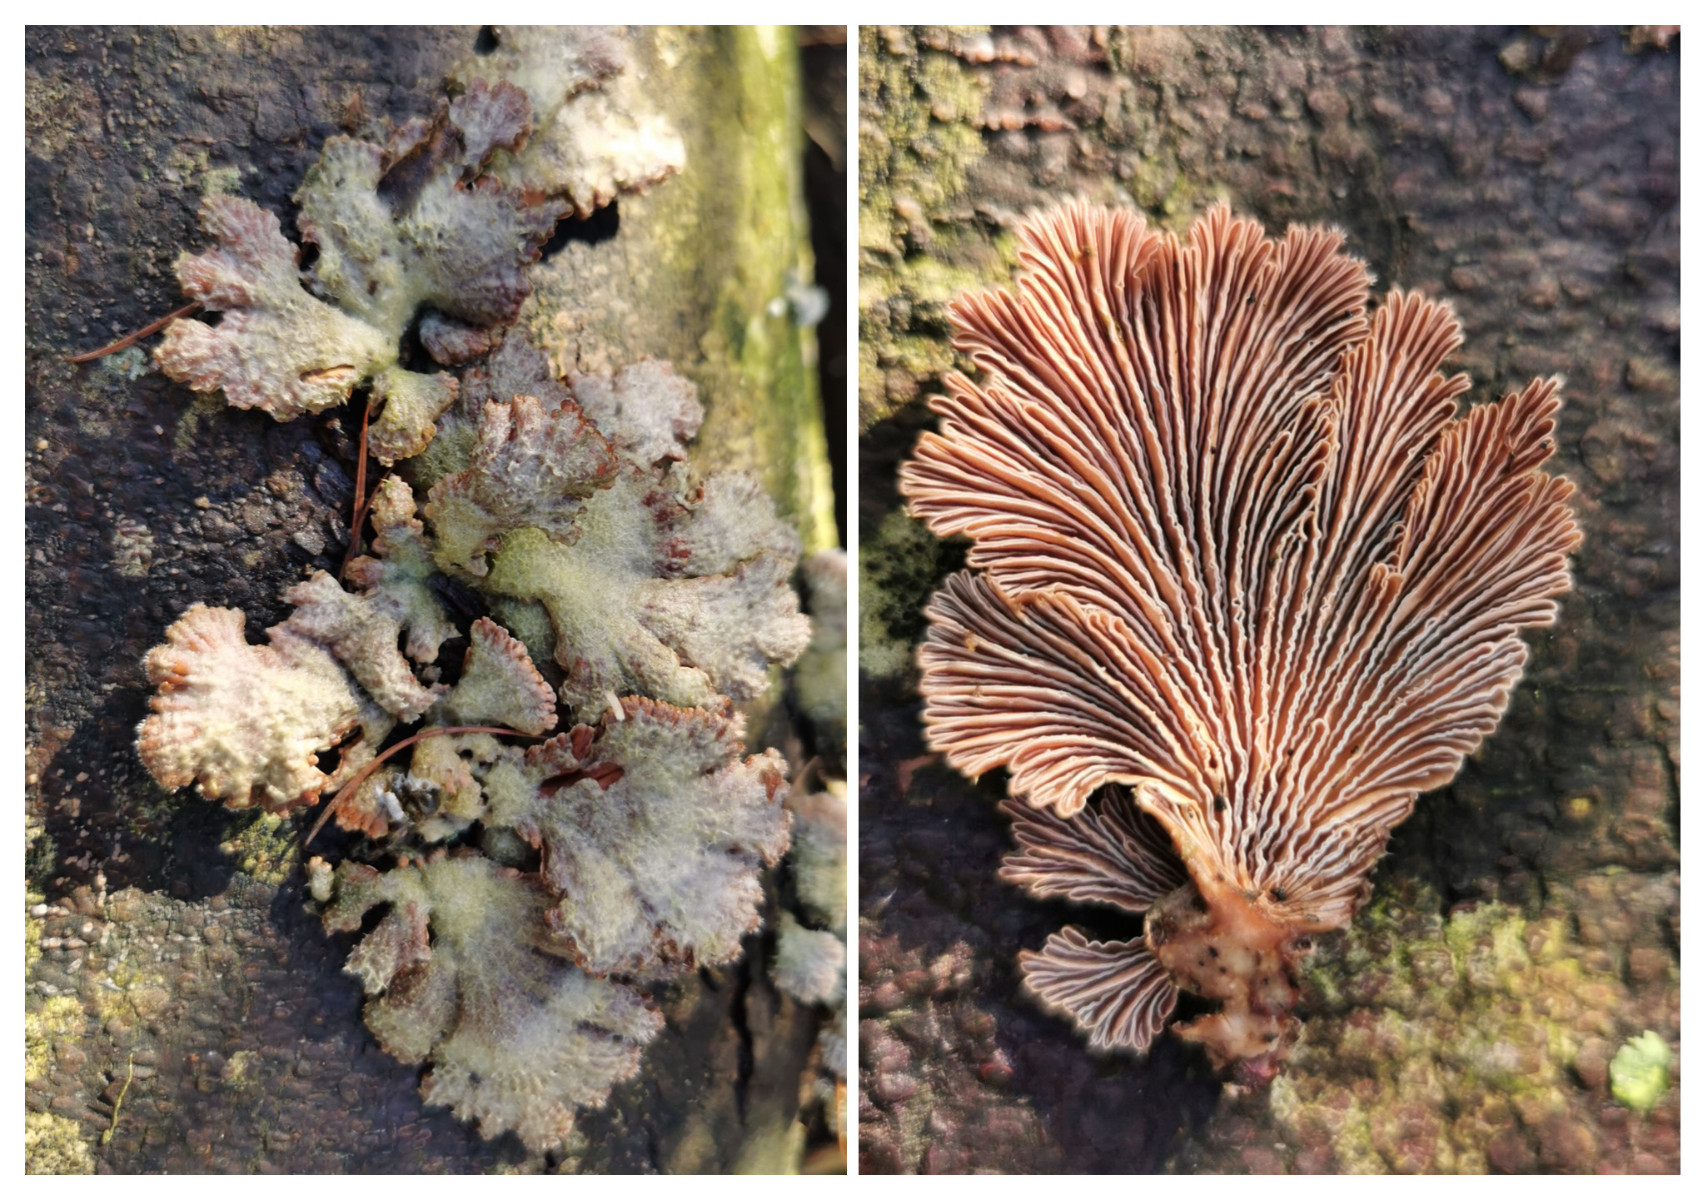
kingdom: Fungi
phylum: Basidiomycota
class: Agaricomycetes
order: Agaricales
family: Schizophyllaceae
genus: Schizophyllum
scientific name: Schizophyllum commune
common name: kløvblad
